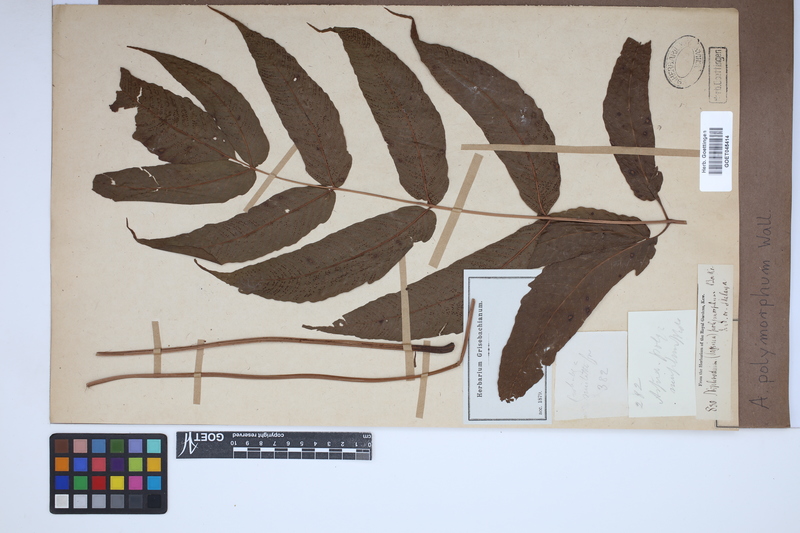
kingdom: Plantae
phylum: Tracheophyta
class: Polypodiopsida
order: Polypodiales
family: Tectariaceae
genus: Tectaria
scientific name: Tectaria polymorpha
